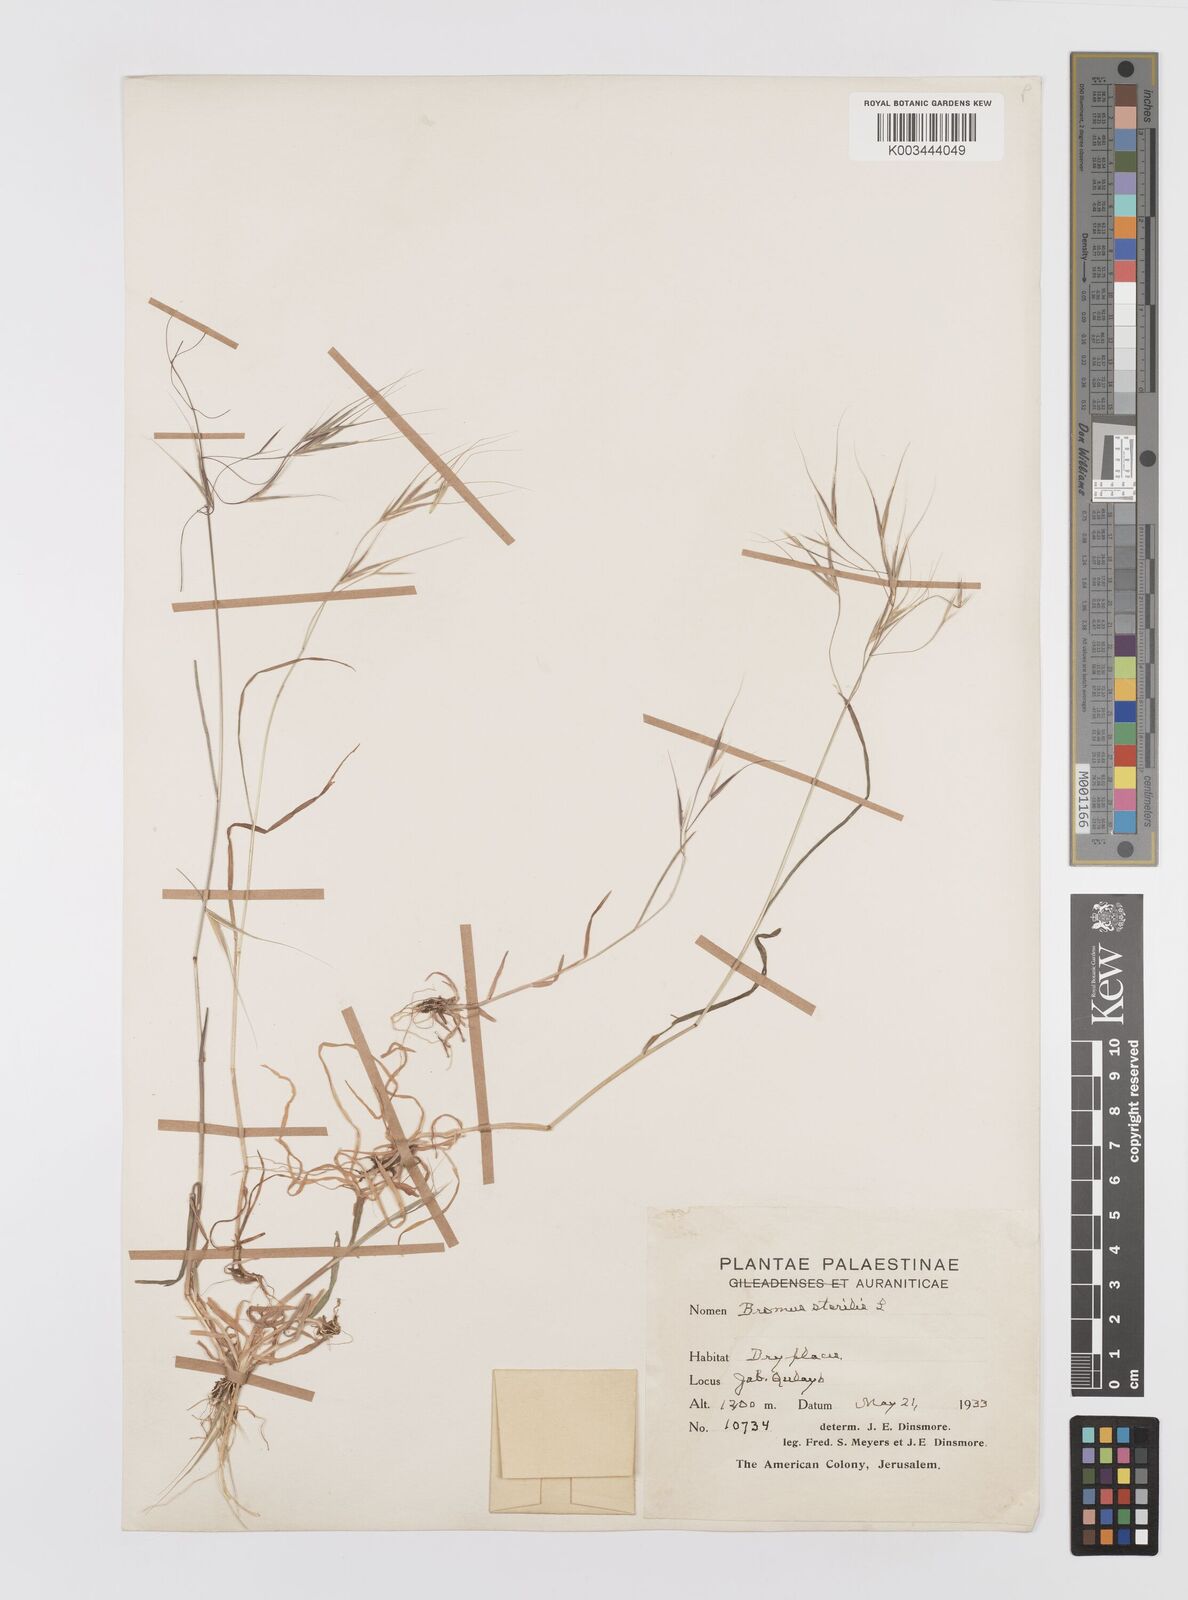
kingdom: Plantae
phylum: Tracheophyta
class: Liliopsida
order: Poales
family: Poaceae
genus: Bromus
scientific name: Bromus sterilis
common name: Poverty brome
